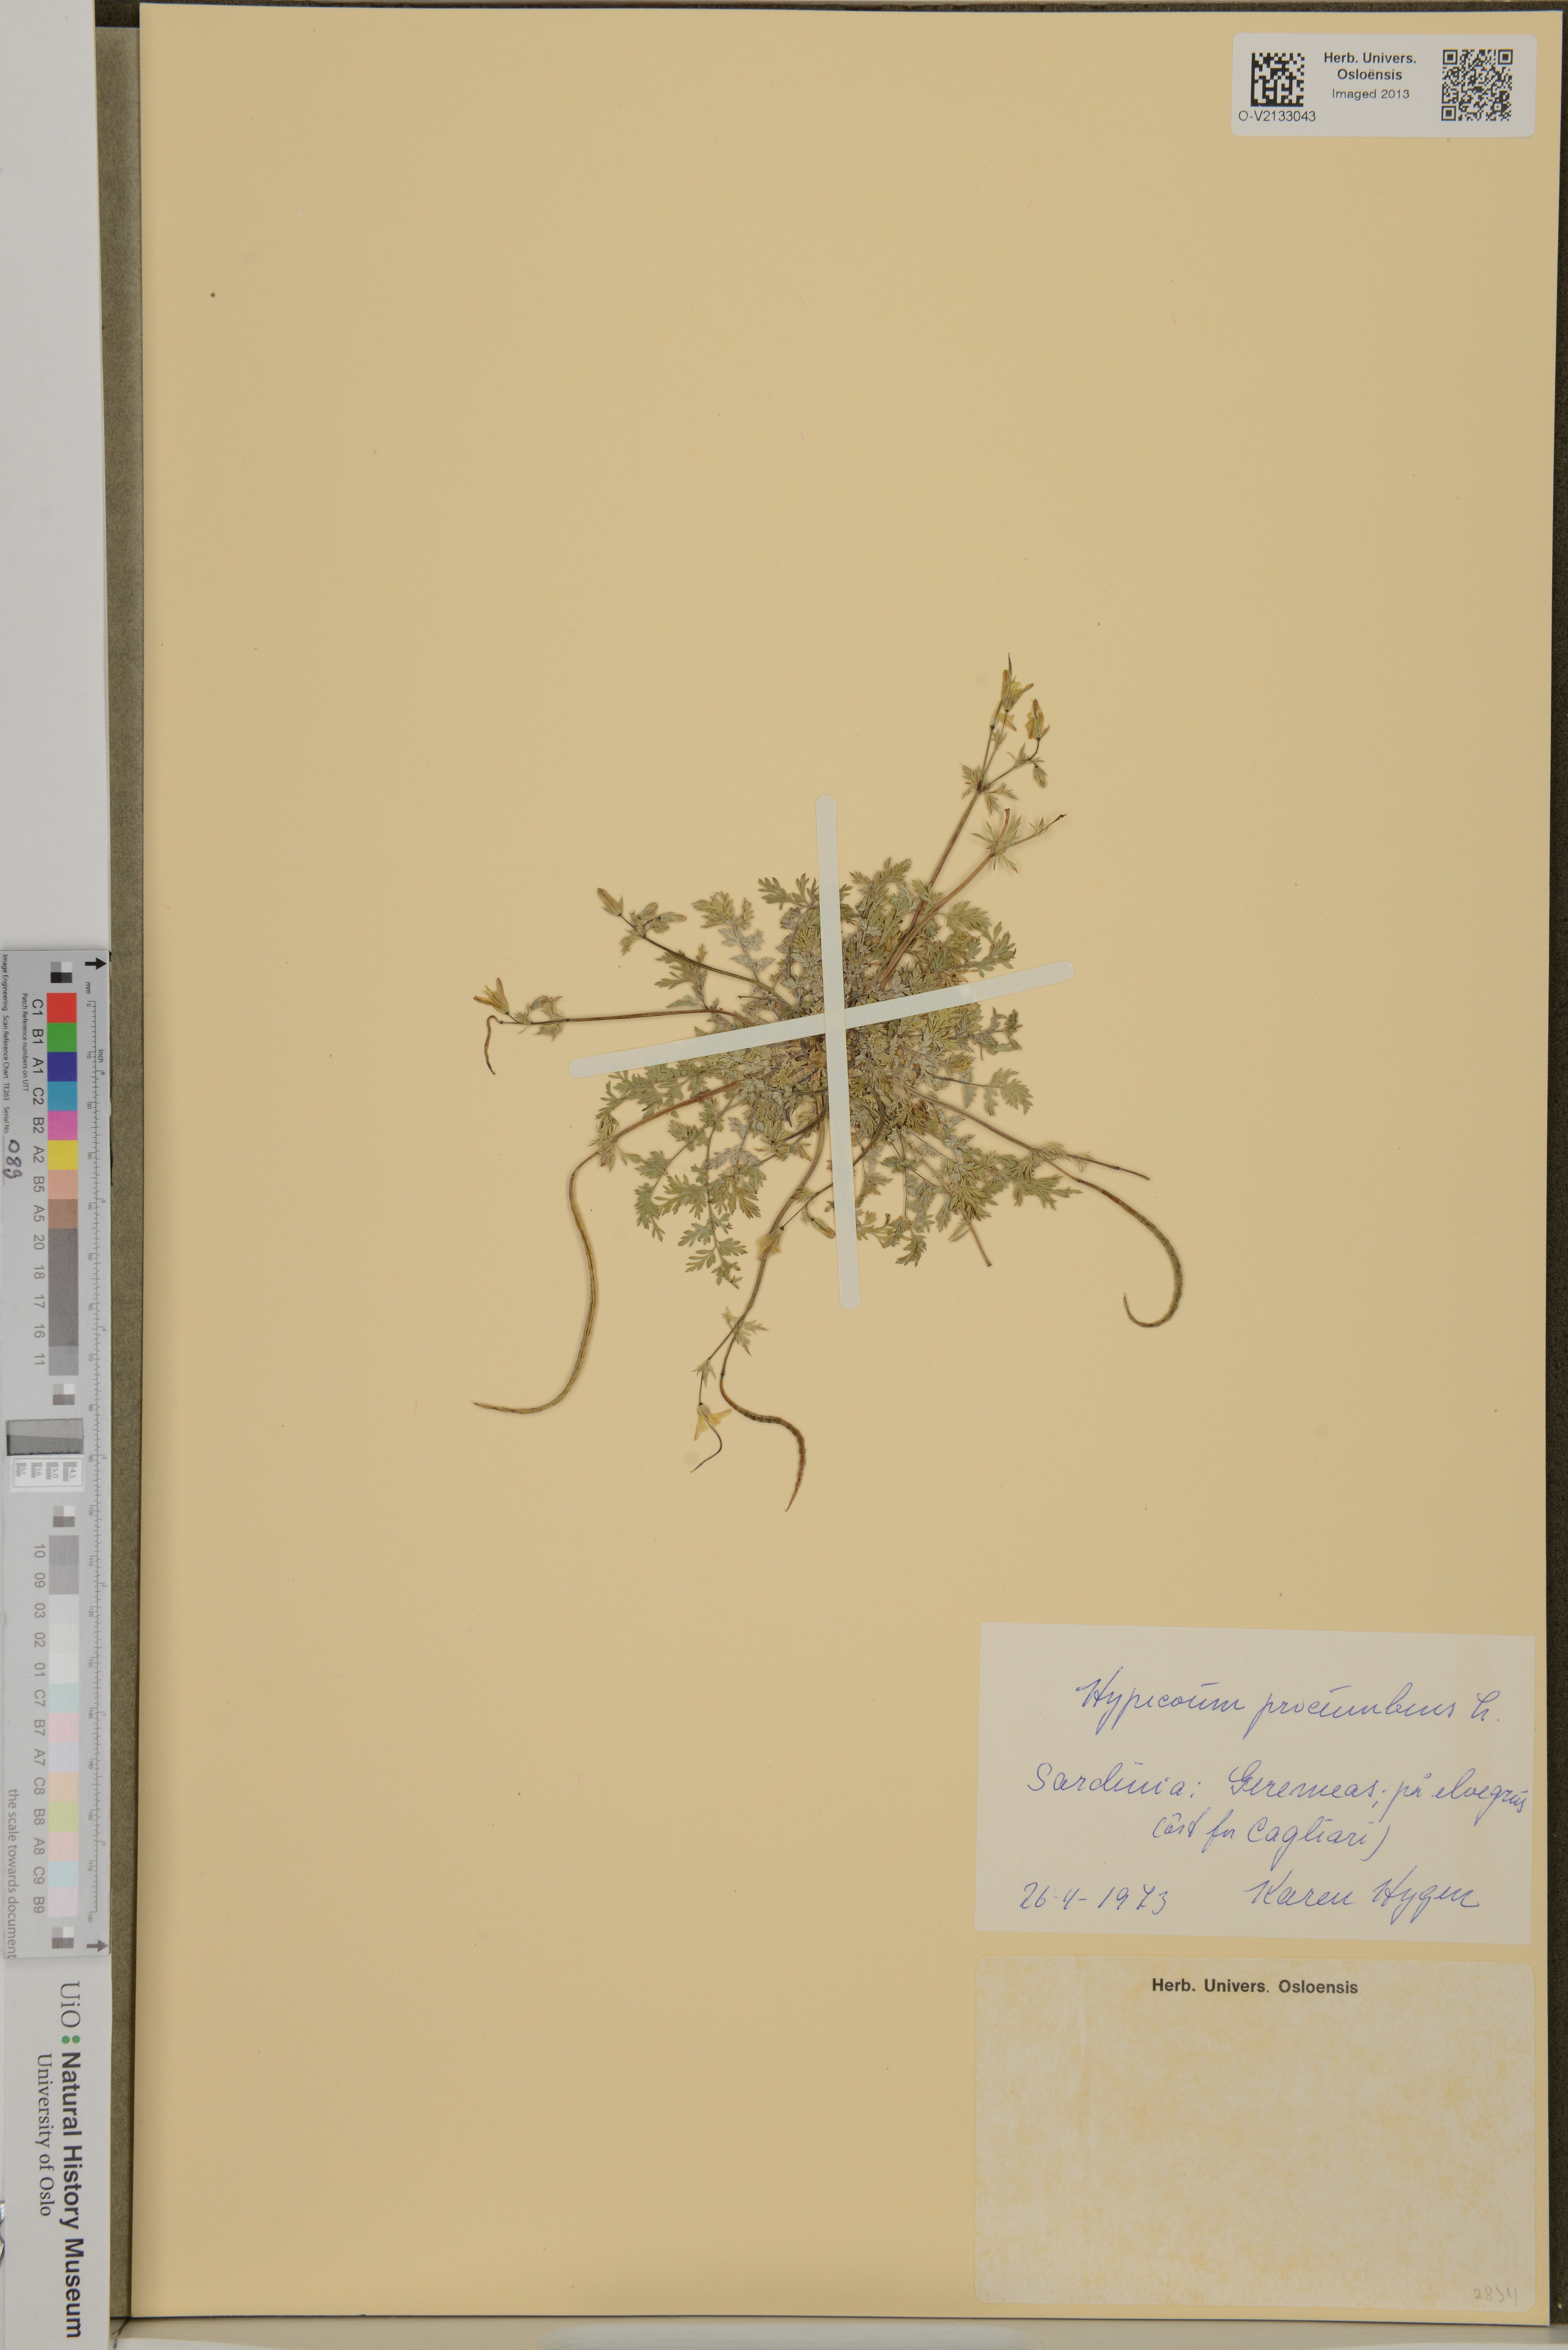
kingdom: Plantae
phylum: Tracheophyta
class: Magnoliopsida
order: Ranunculales
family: Papaveraceae
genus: Hypecoum
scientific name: Hypecoum procumbens
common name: Procumbent hypecoum
